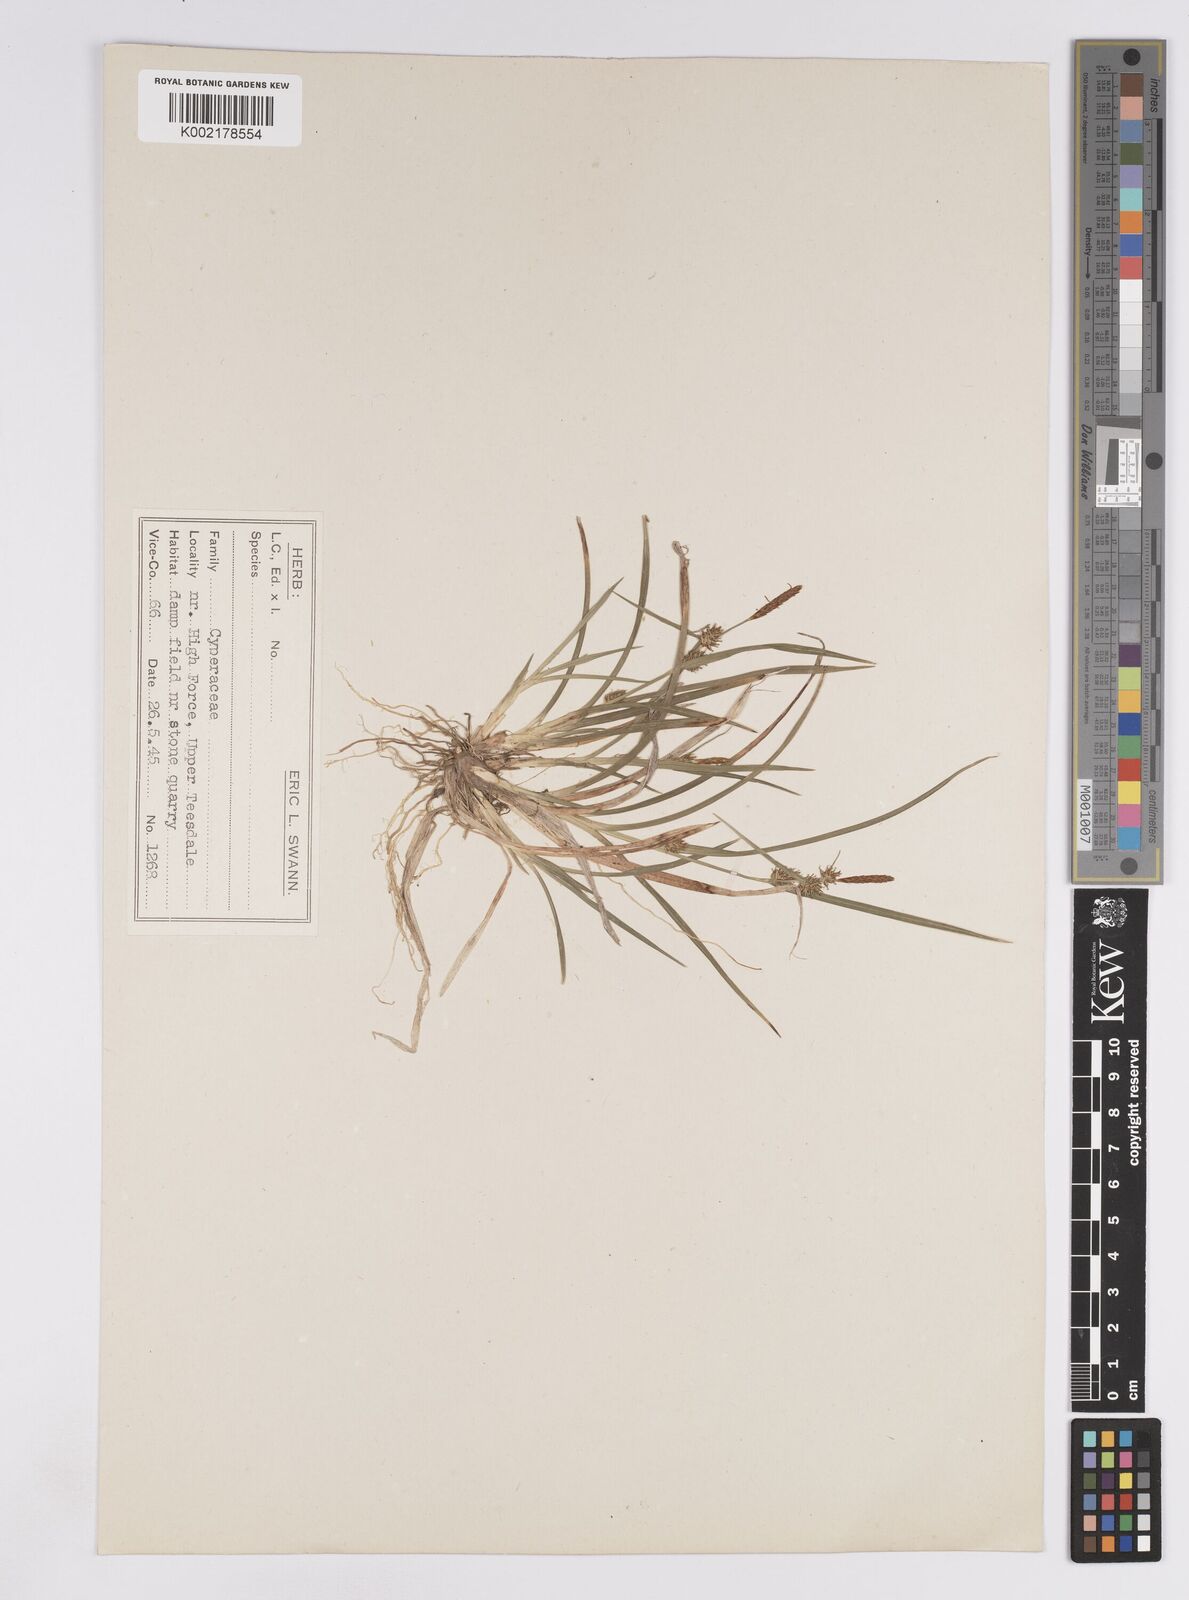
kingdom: Plantae
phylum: Tracheophyta
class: Liliopsida
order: Poales
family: Cyperaceae
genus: Carex
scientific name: Carex lepidocarpa
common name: Long-stalked yellow-sedge
